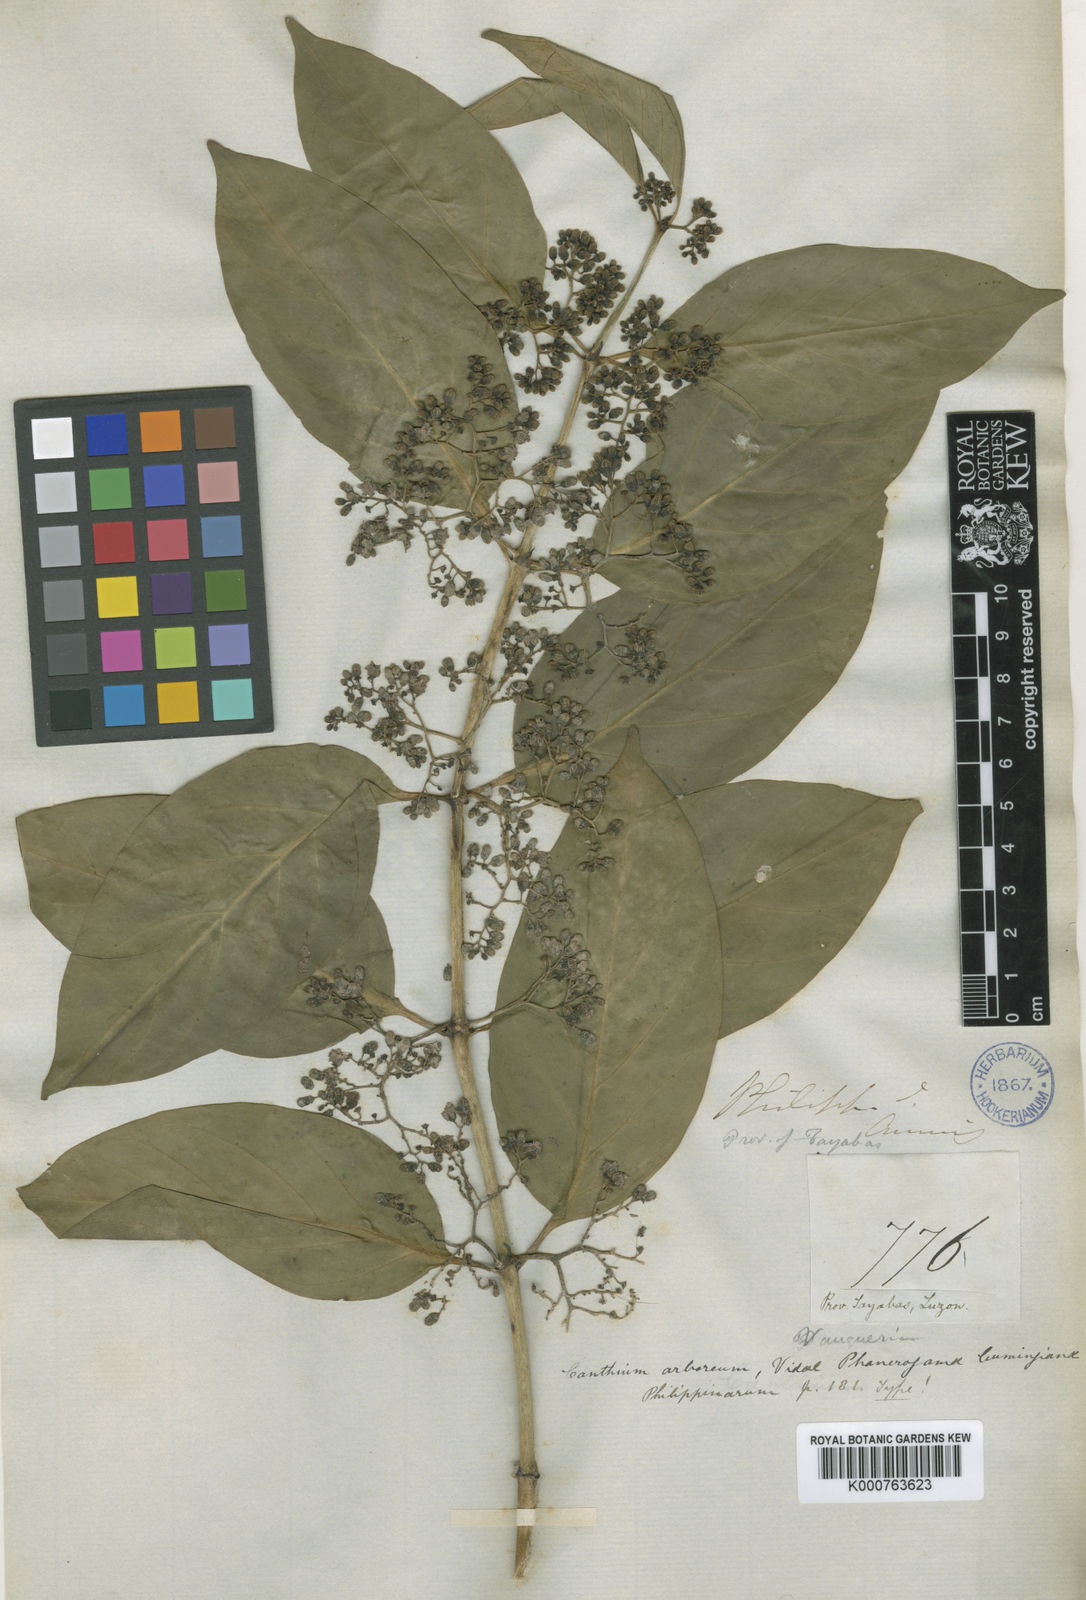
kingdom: Plantae
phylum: Tracheophyta
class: Magnoliopsida
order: Gentianales
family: Rubiaceae
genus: Kanapia
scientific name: Kanapia monstrosa
